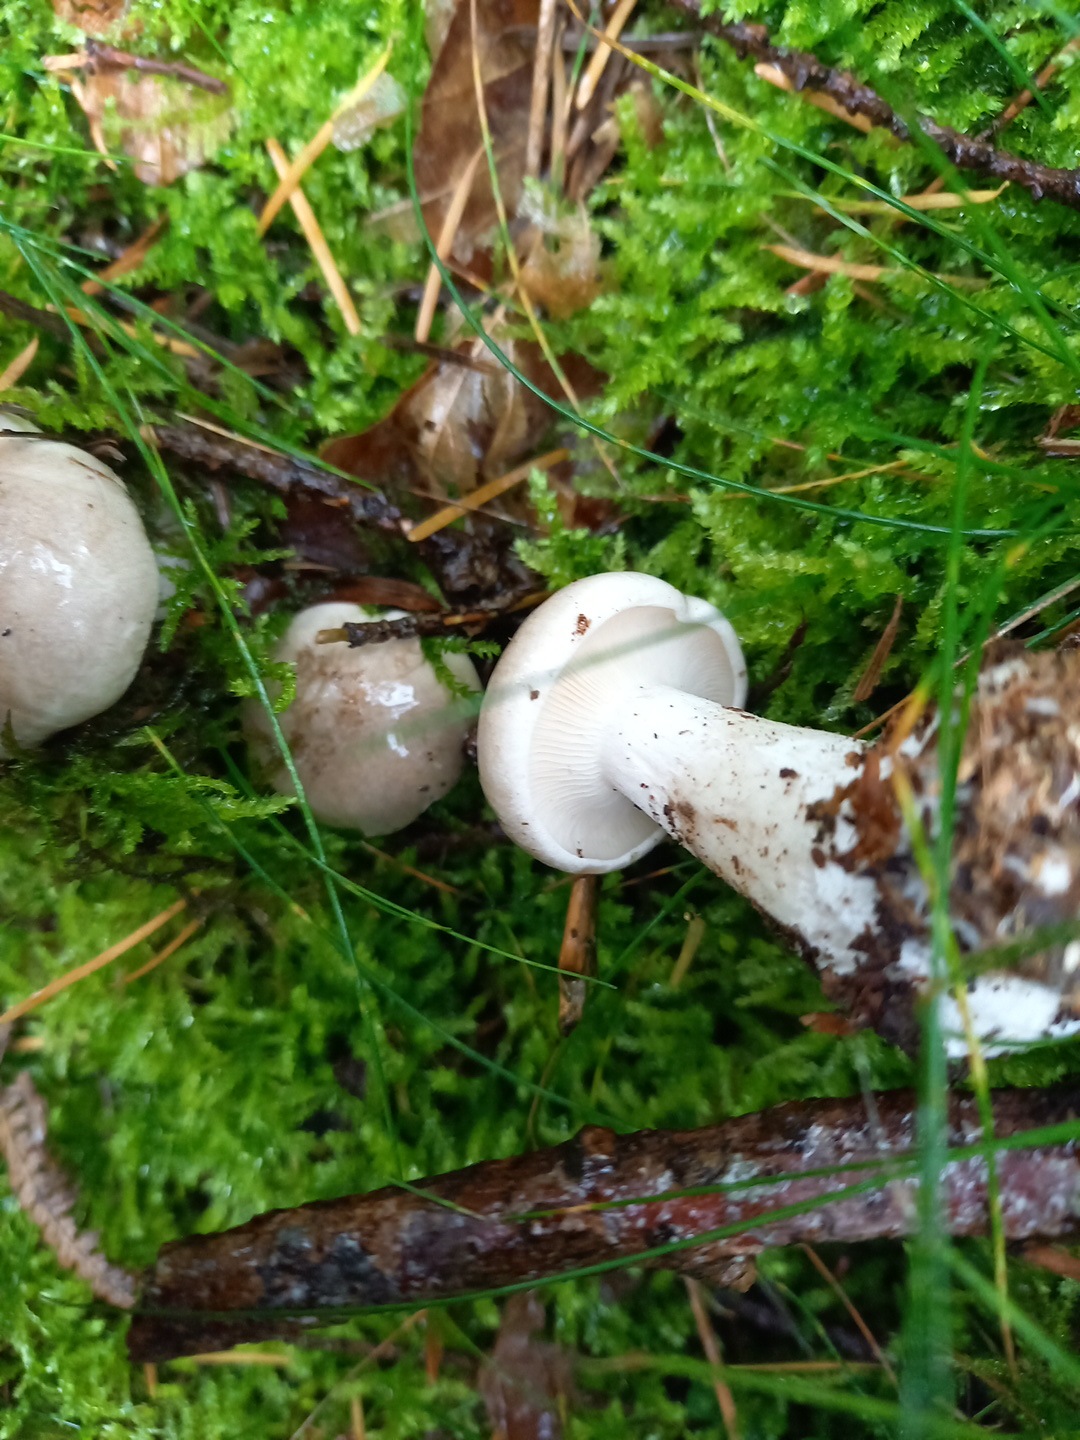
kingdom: Fungi
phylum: Basidiomycota
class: Agaricomycetes
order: Agaricales
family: Tricholomataceae
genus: Clitocybe
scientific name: Clitocybe nebularis
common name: tåge-tragthat
